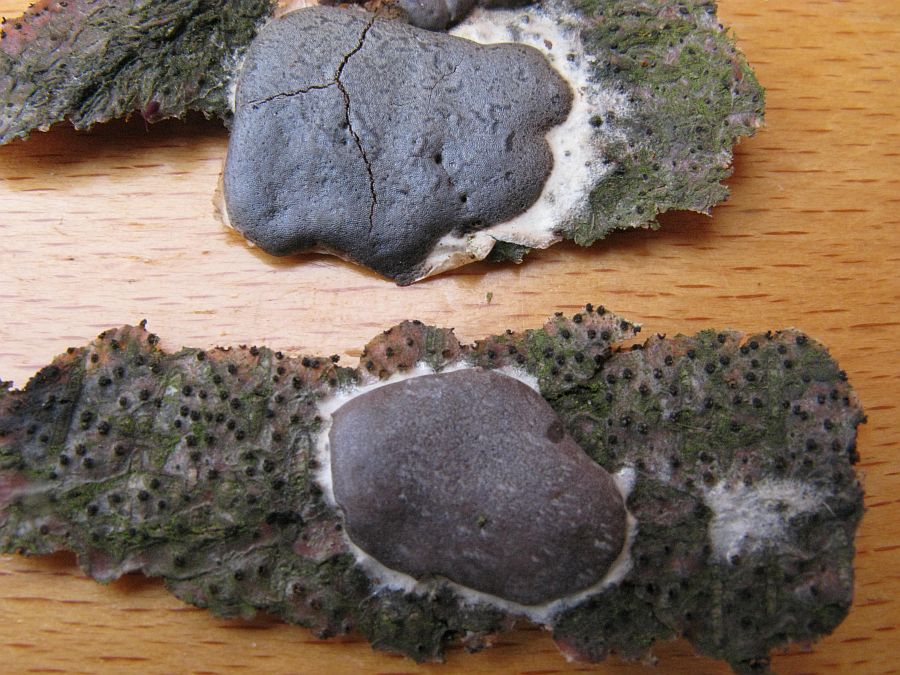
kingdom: Protozoa
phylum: Mycetozoa
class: Myxomycetes
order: Trichiales
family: Dictydiaethaliaceae
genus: Dictydiaethalium
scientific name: Dictydiaethalium plumbeum
